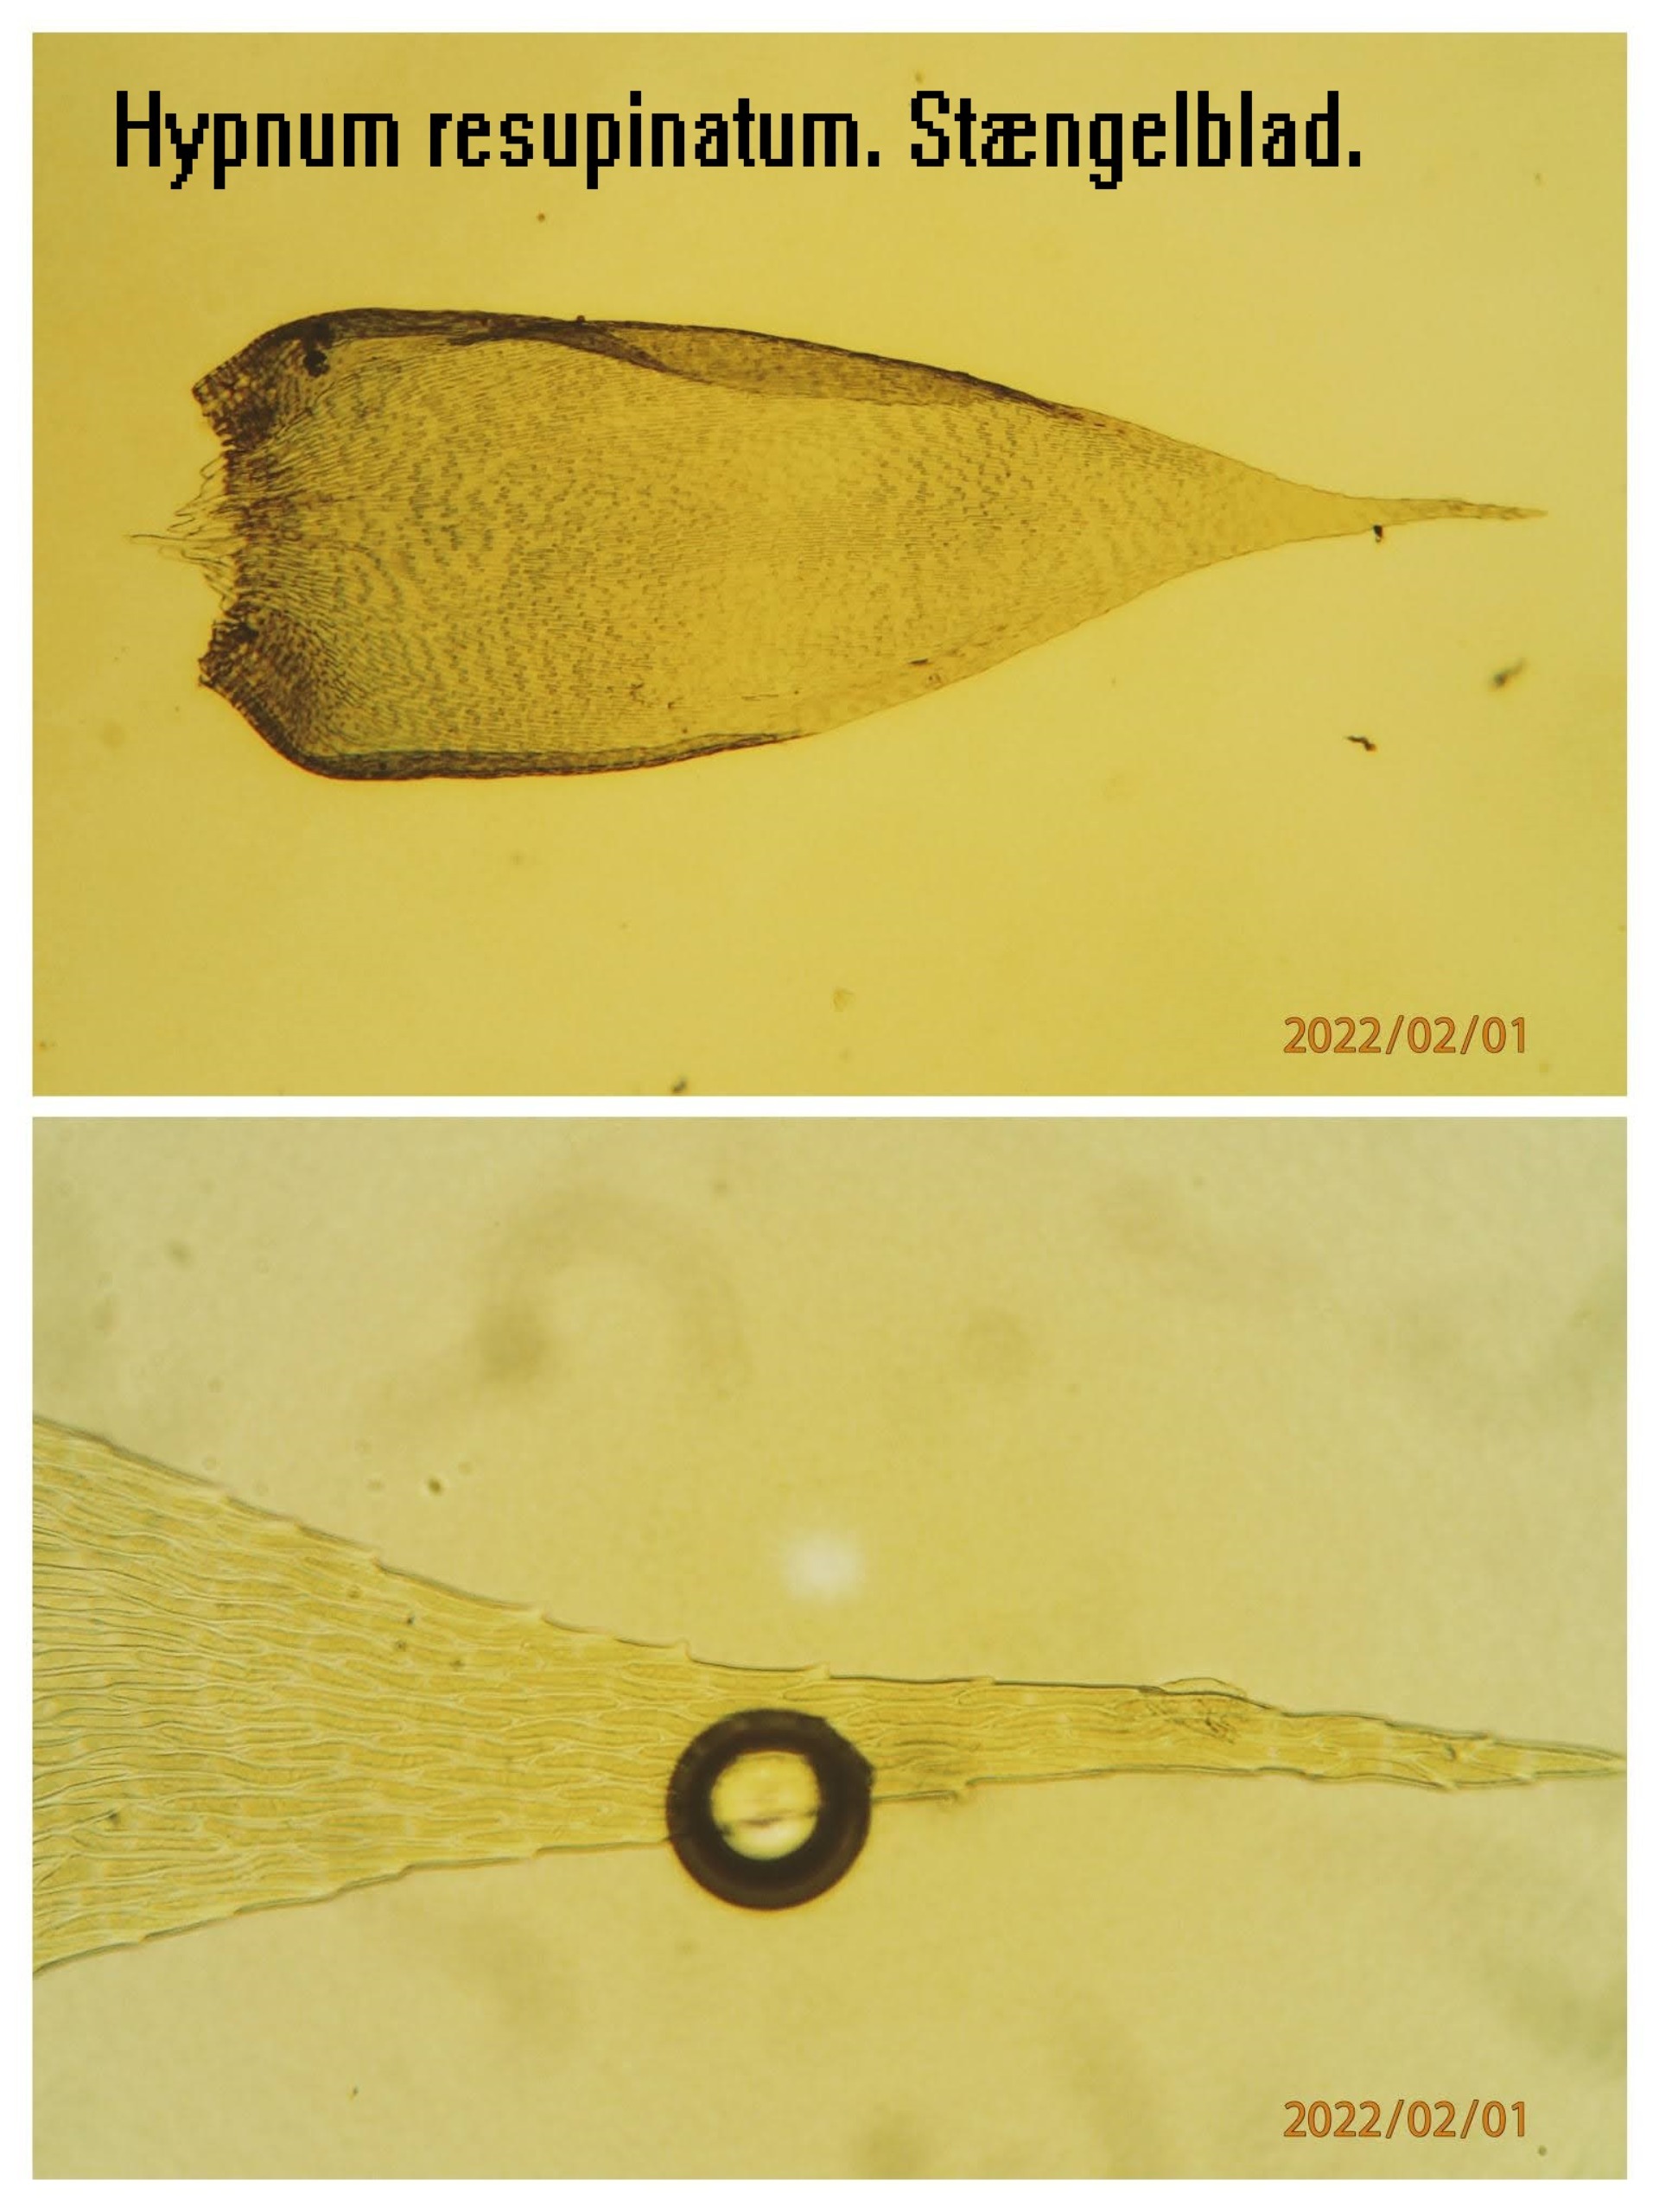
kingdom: Plantae
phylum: Bryophyta
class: Bryopsida
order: Hypnales
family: Hypnaceae
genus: Hypnum
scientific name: Hypnum resupinatum
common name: Ret cypresmos
